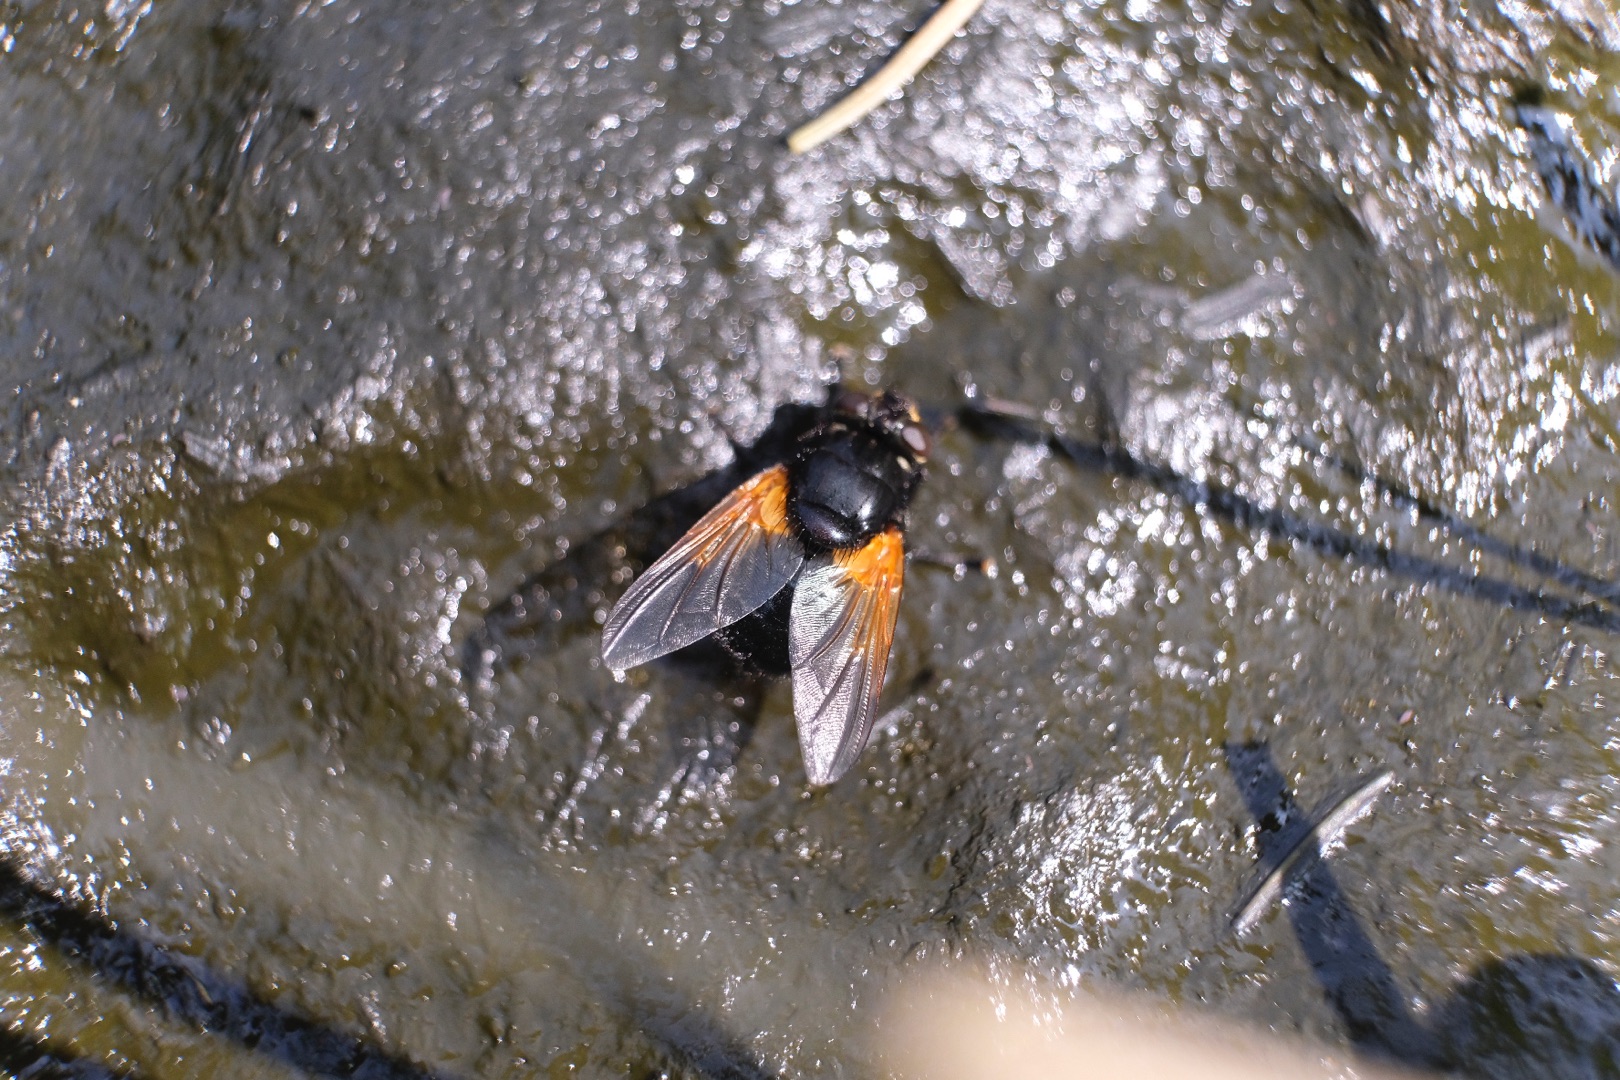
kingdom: Animalia
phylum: Arthropoda
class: Insecta
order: Diptera
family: Muscidae
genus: Mesembrina
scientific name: Mesembrina meridiana
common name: Gulvinget flue
